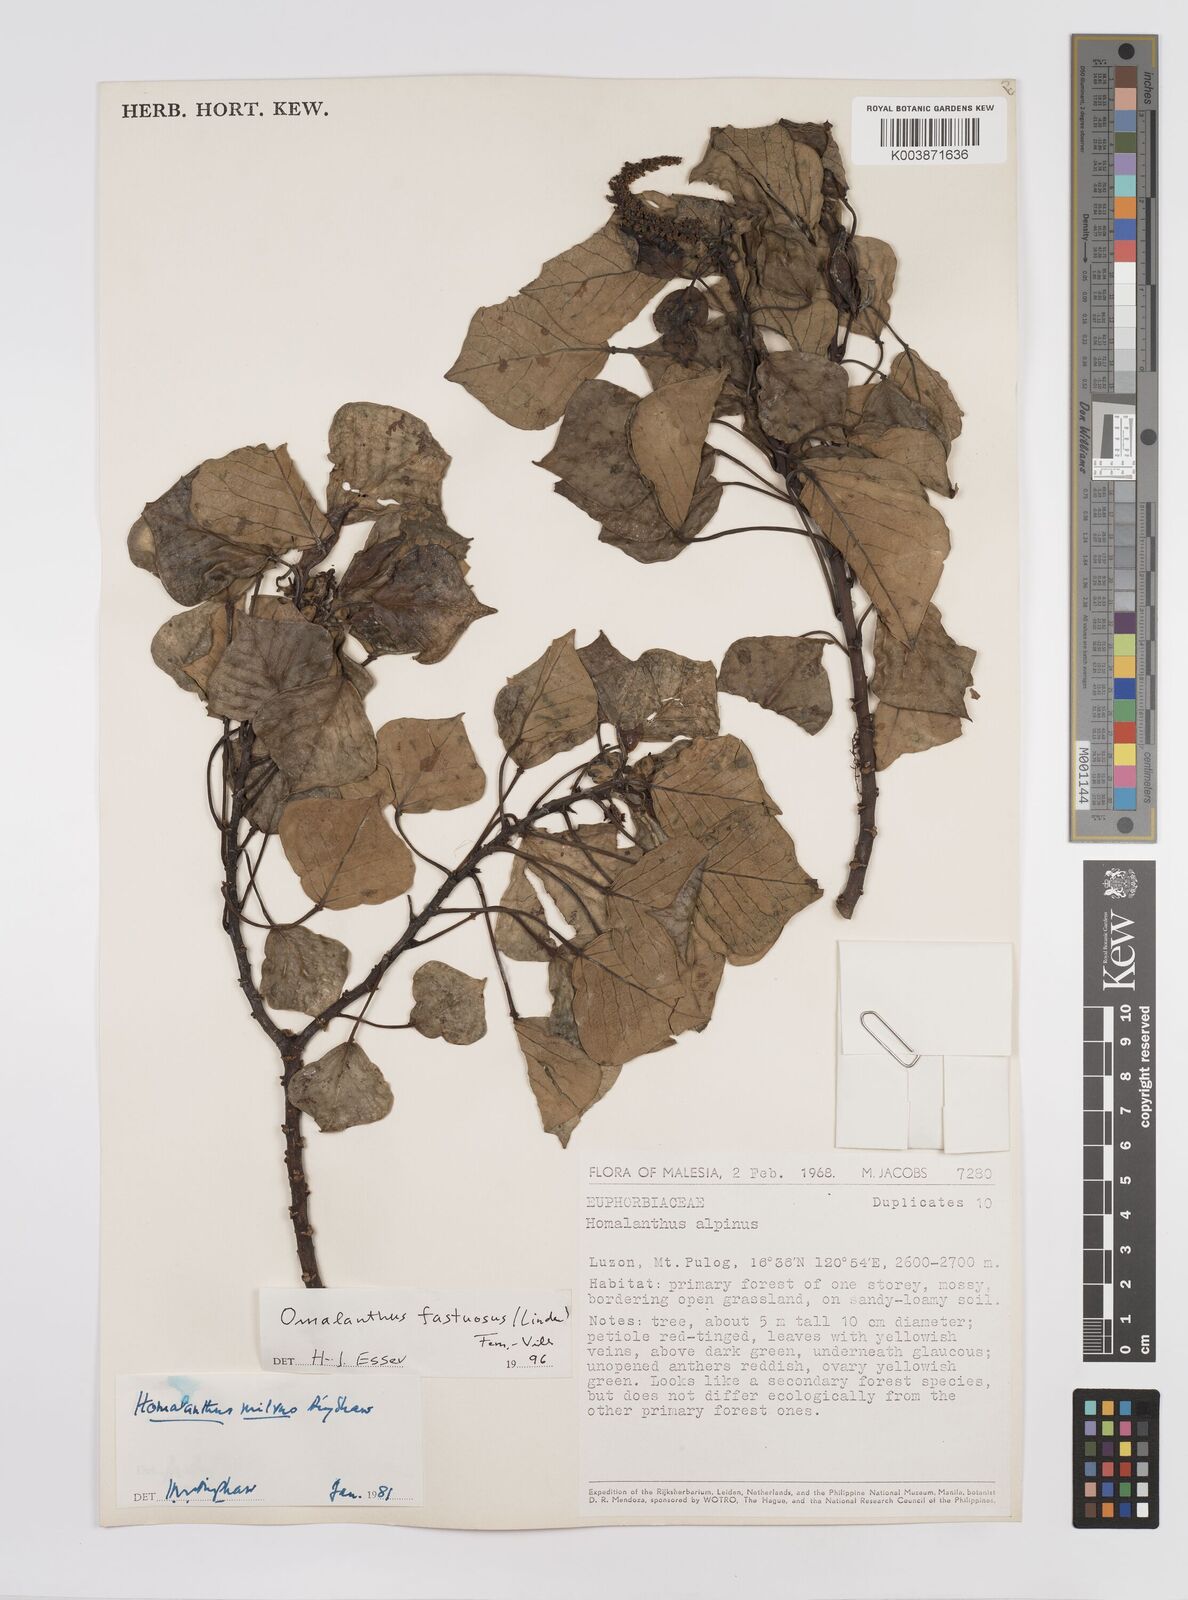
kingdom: Plantae
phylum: Tracheophyta
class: Magnoliopsida
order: Malpighiales
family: Euphorbiaceae
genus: Homalanthus
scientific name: Homalanthus fastuosus
